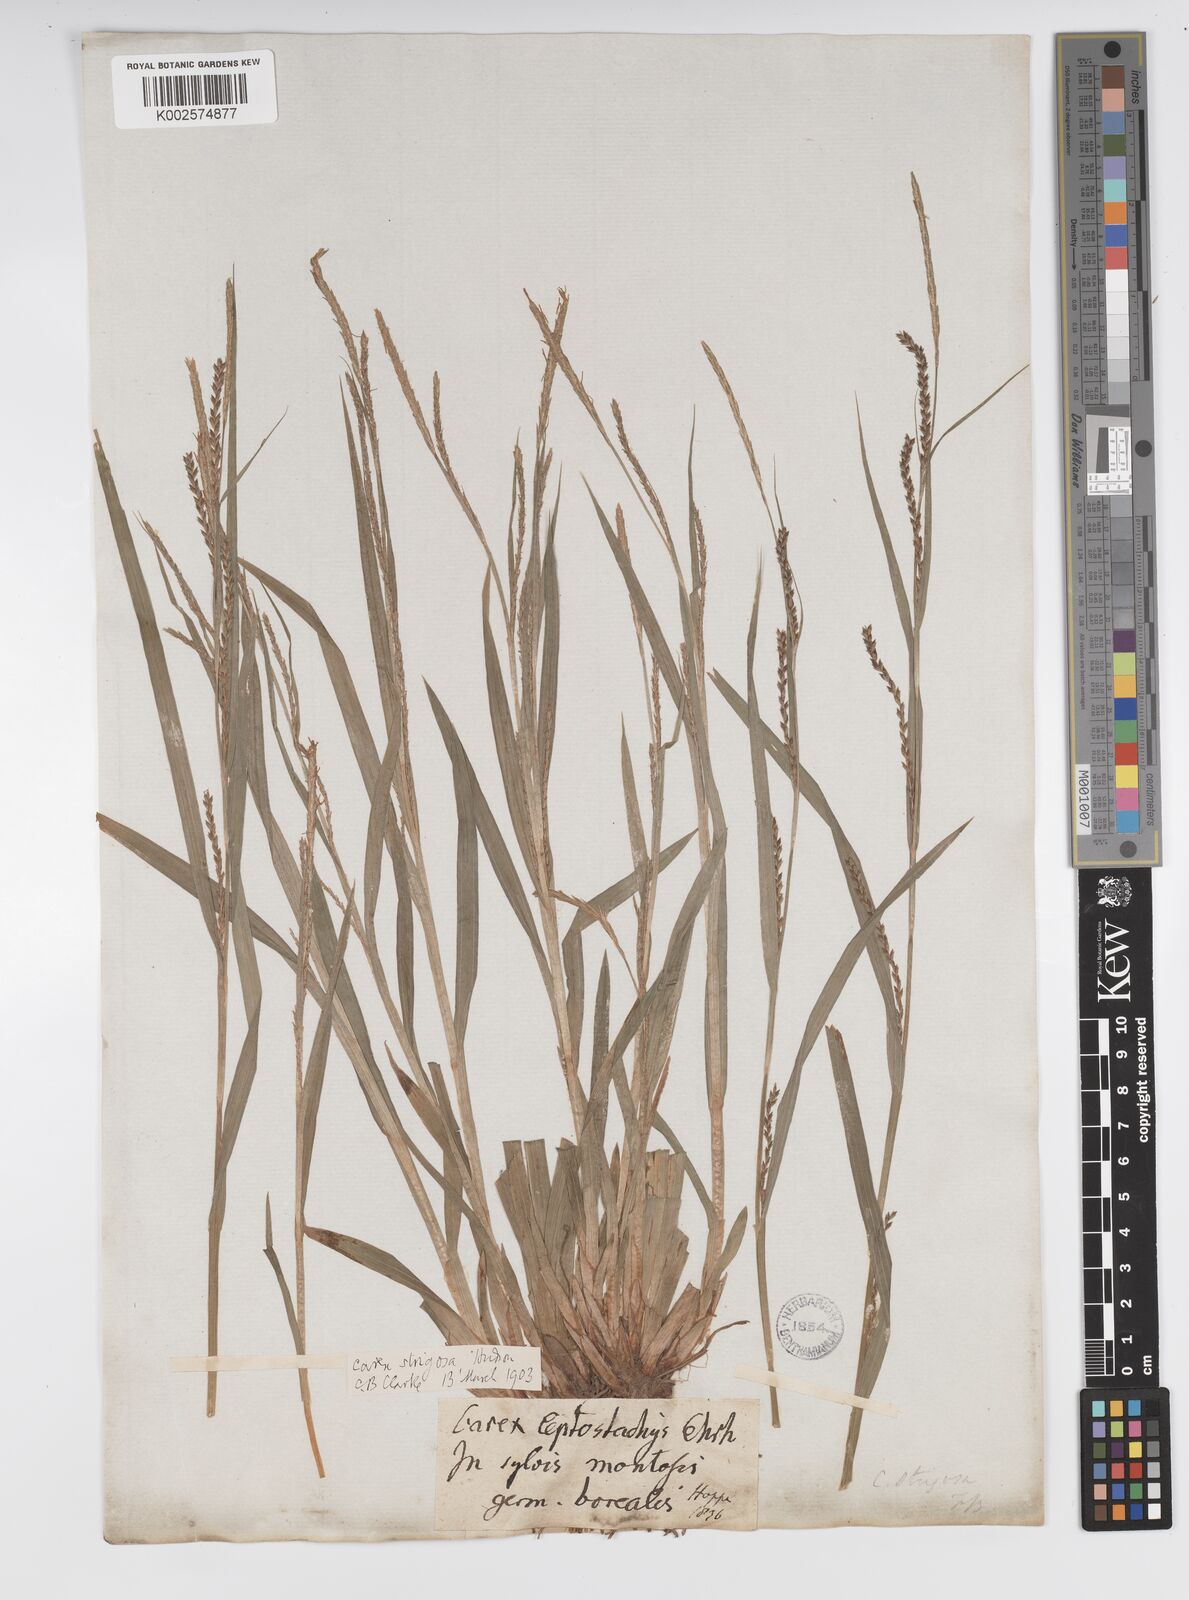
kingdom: Plantae
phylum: Tracheophyta
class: Liliopsida
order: Poales
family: Cyperaceae
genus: Carex
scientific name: Carex strigosa
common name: Thin-spiked wood-sedge
